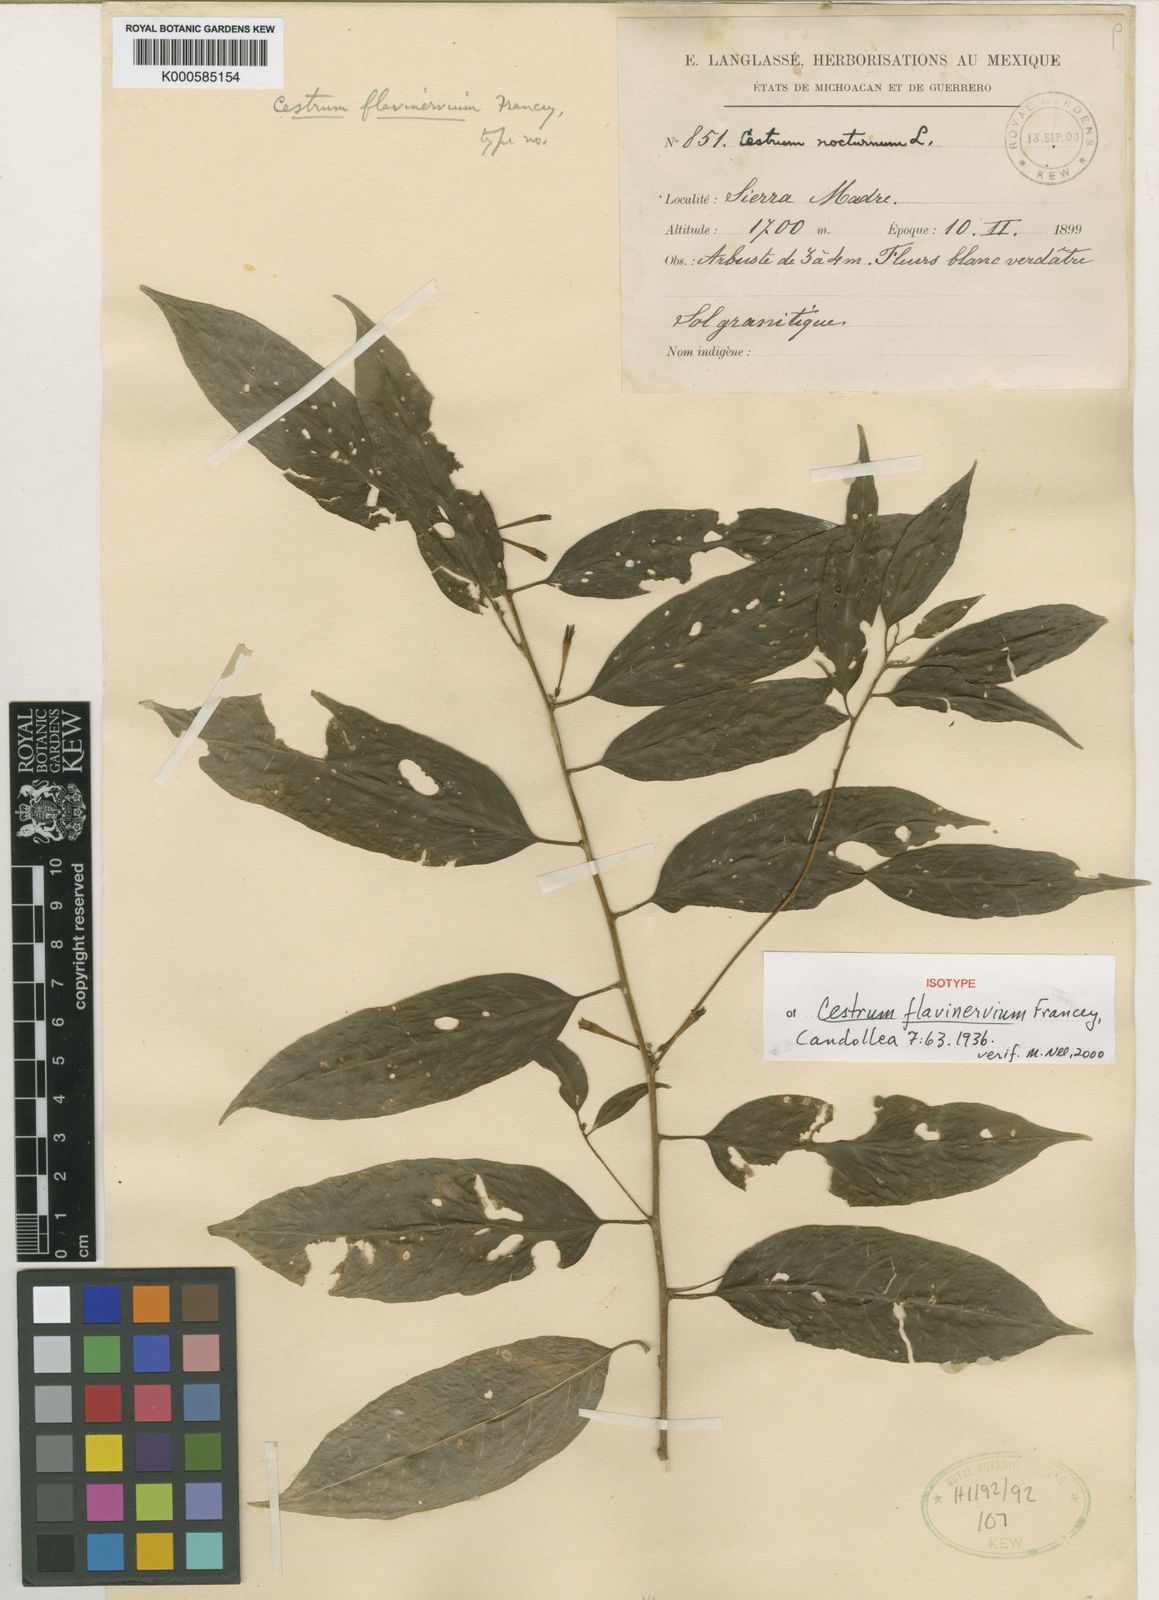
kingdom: Plantae
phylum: Tracheophyta
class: Magnoliopsida
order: Solanales
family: Solanaceae
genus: Cestrum
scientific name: Cestrum flavinervium
